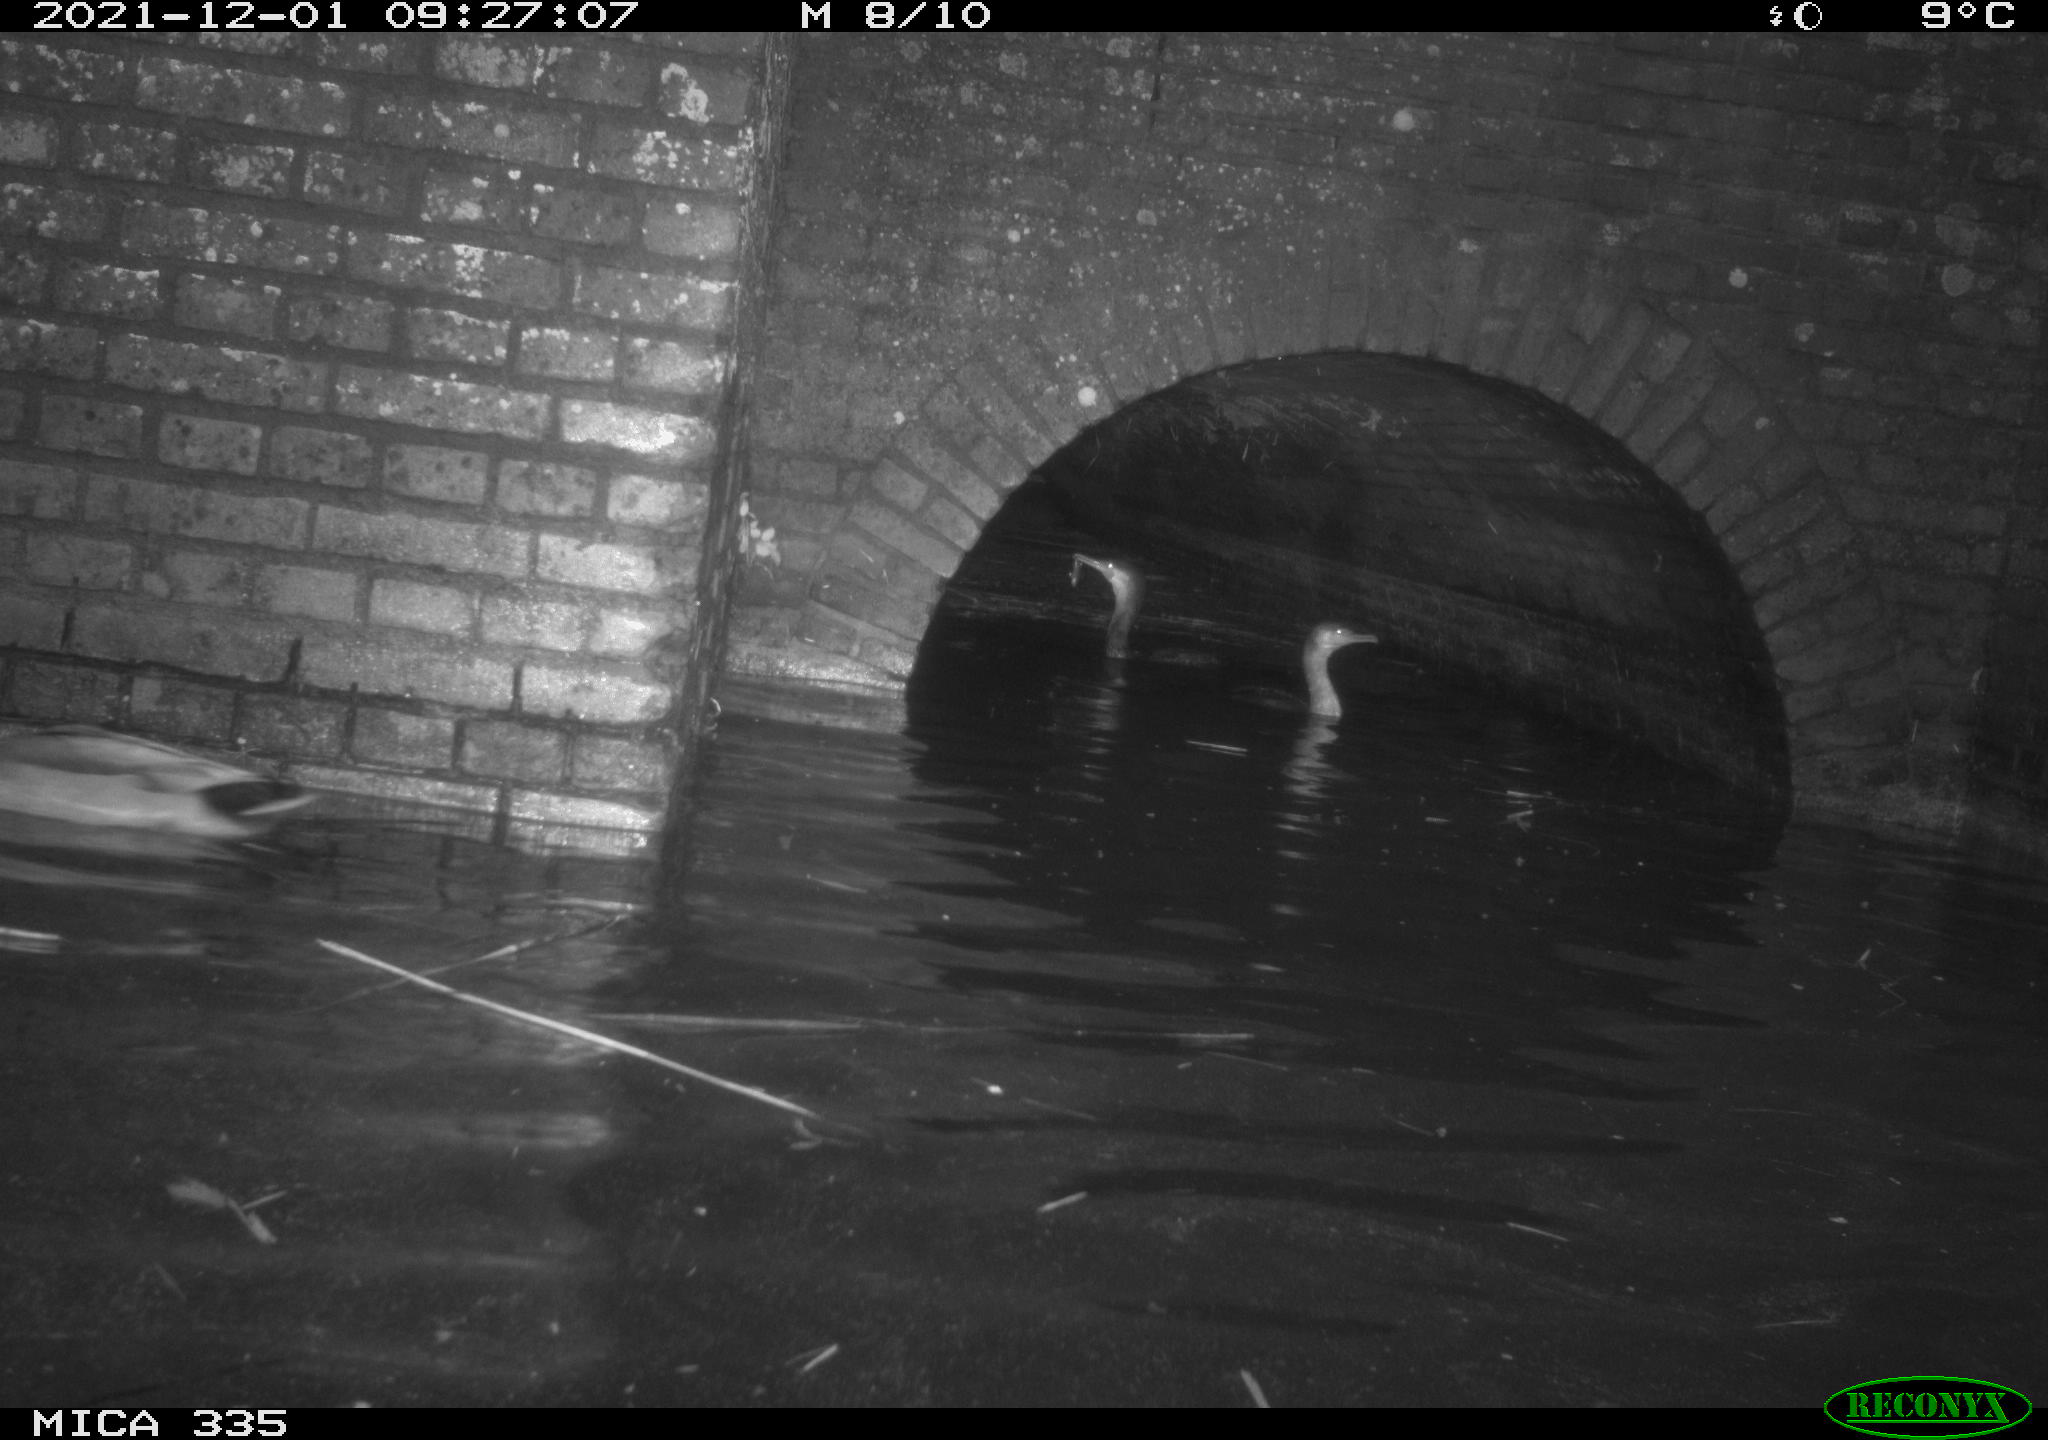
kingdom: Animalia
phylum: Chordata
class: Aves
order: Anseriformes
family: Anatidae
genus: Anas
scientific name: Anas platyrhynchos
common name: Mallard
